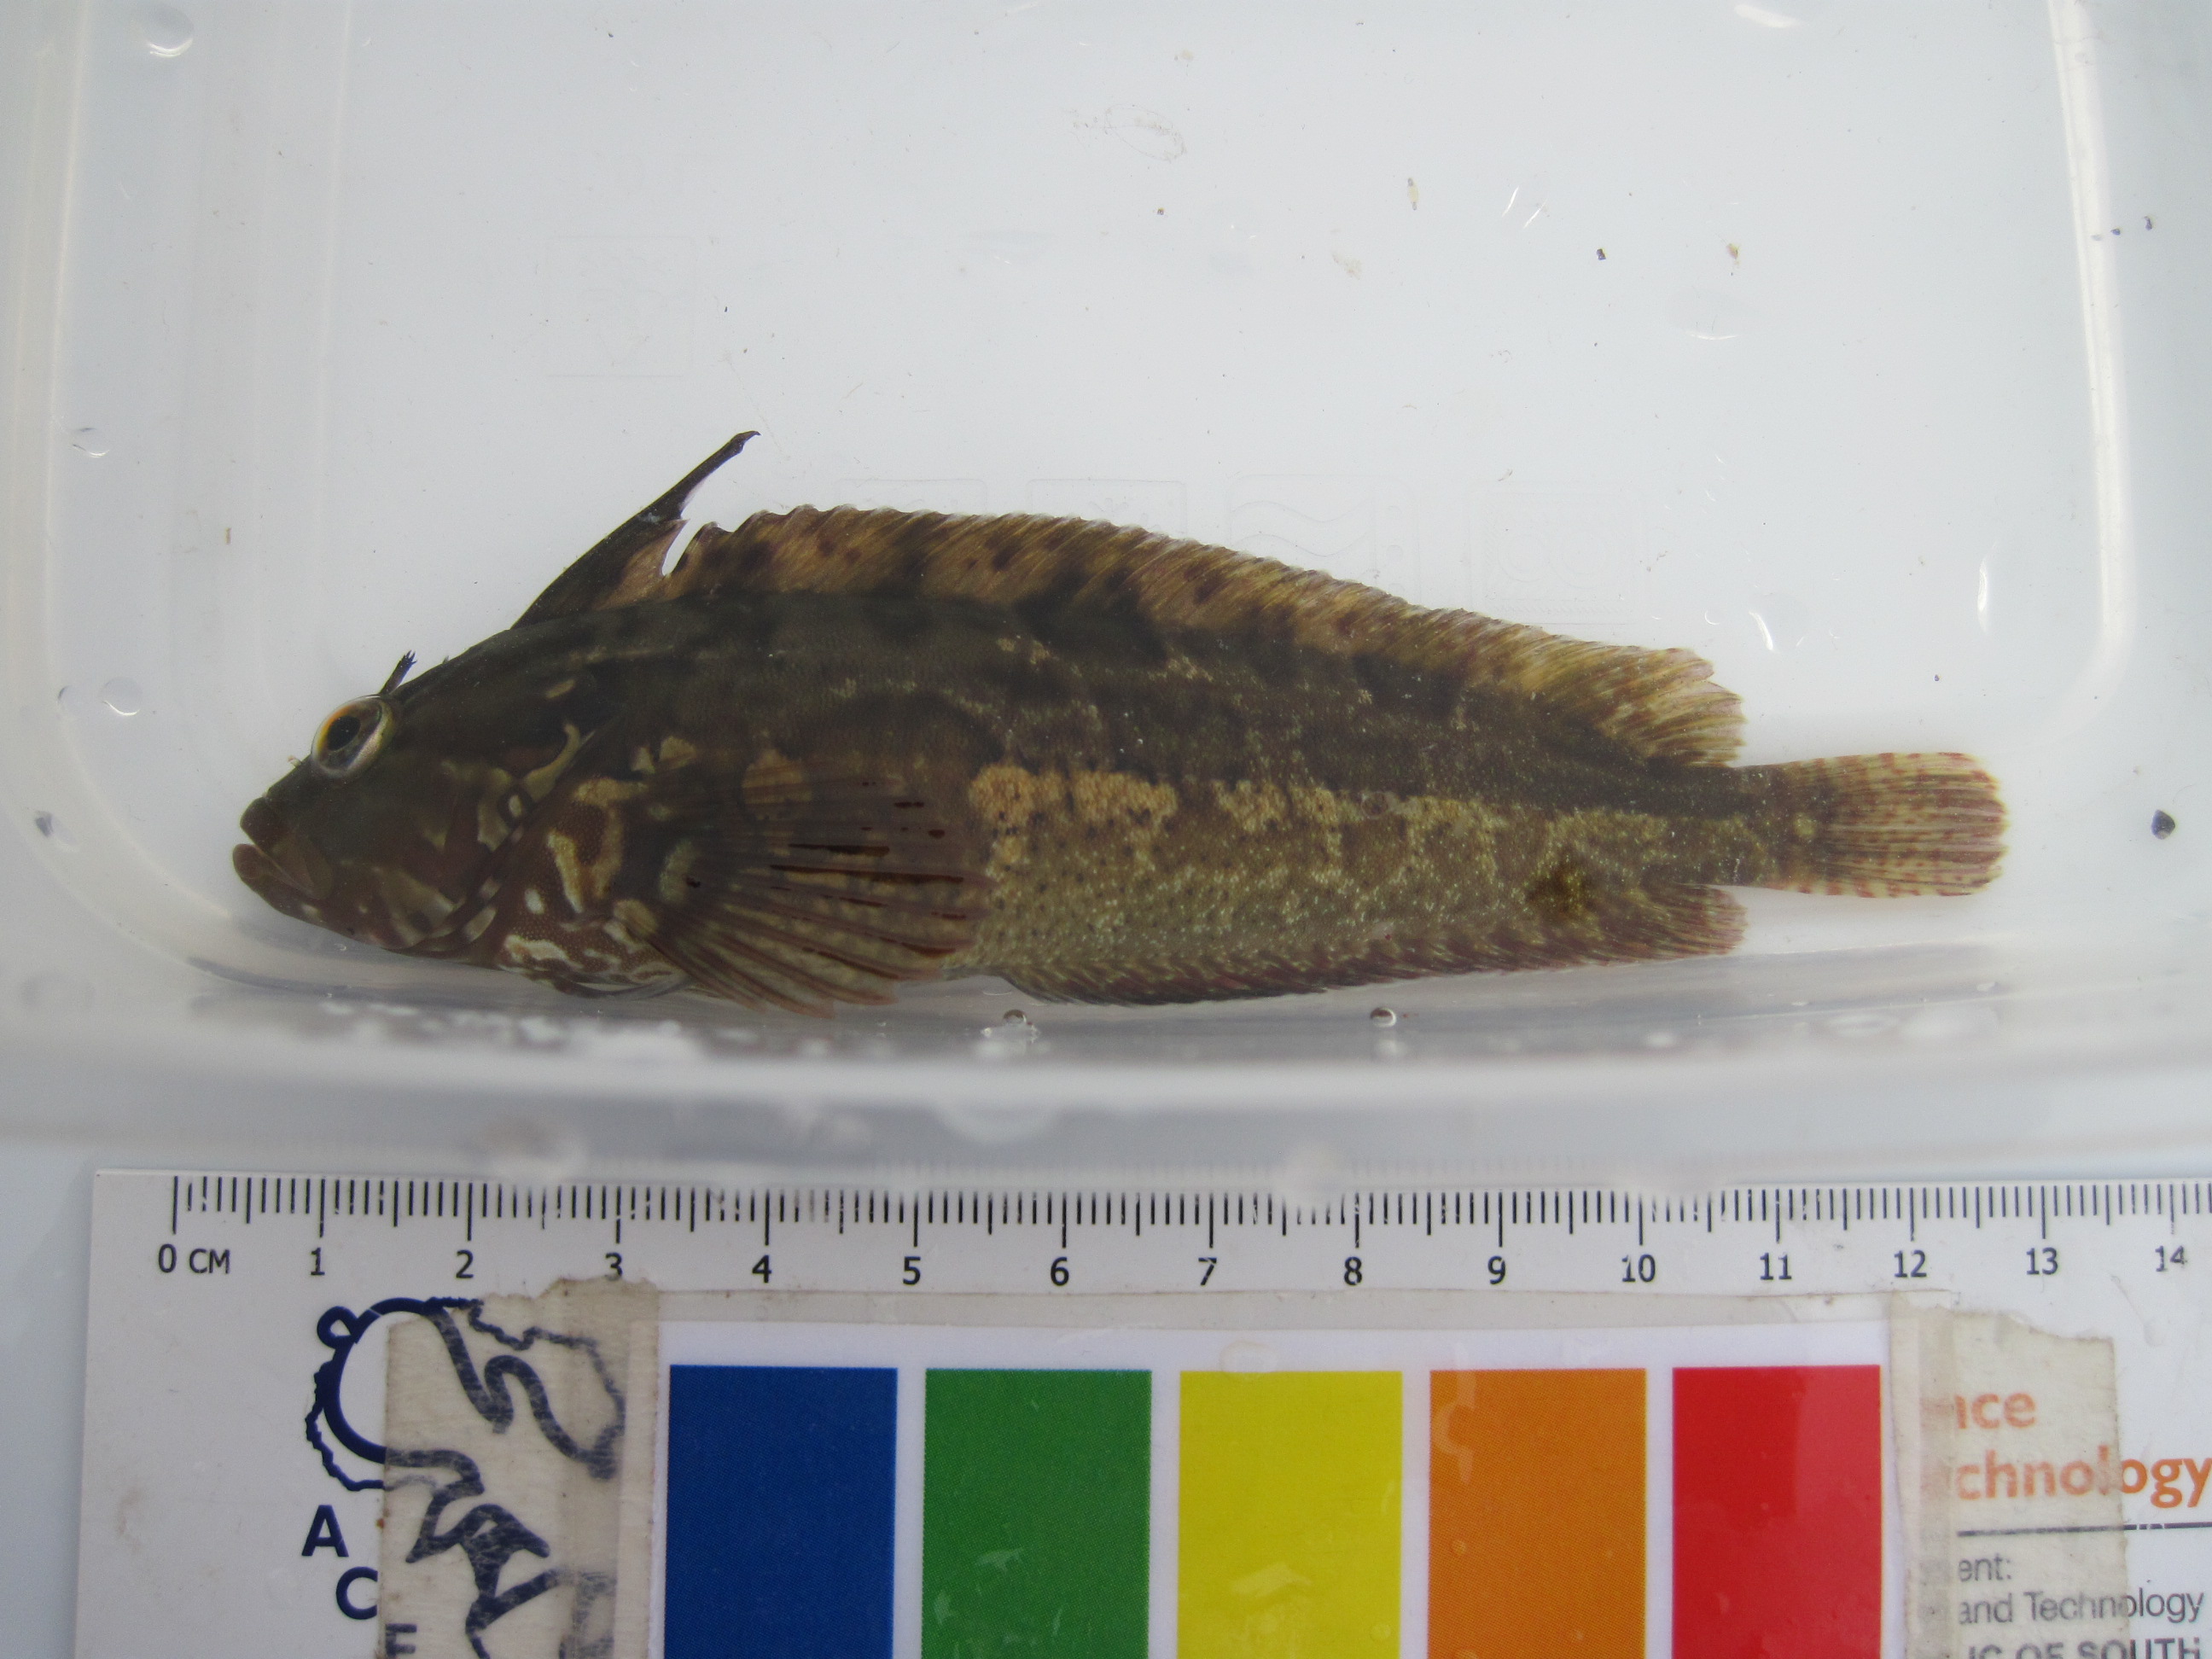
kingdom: Animalia
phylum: Chordata
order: Perciformes
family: Clinidae
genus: Clinus
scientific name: Clinus superciliosus
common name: Super klipfish
